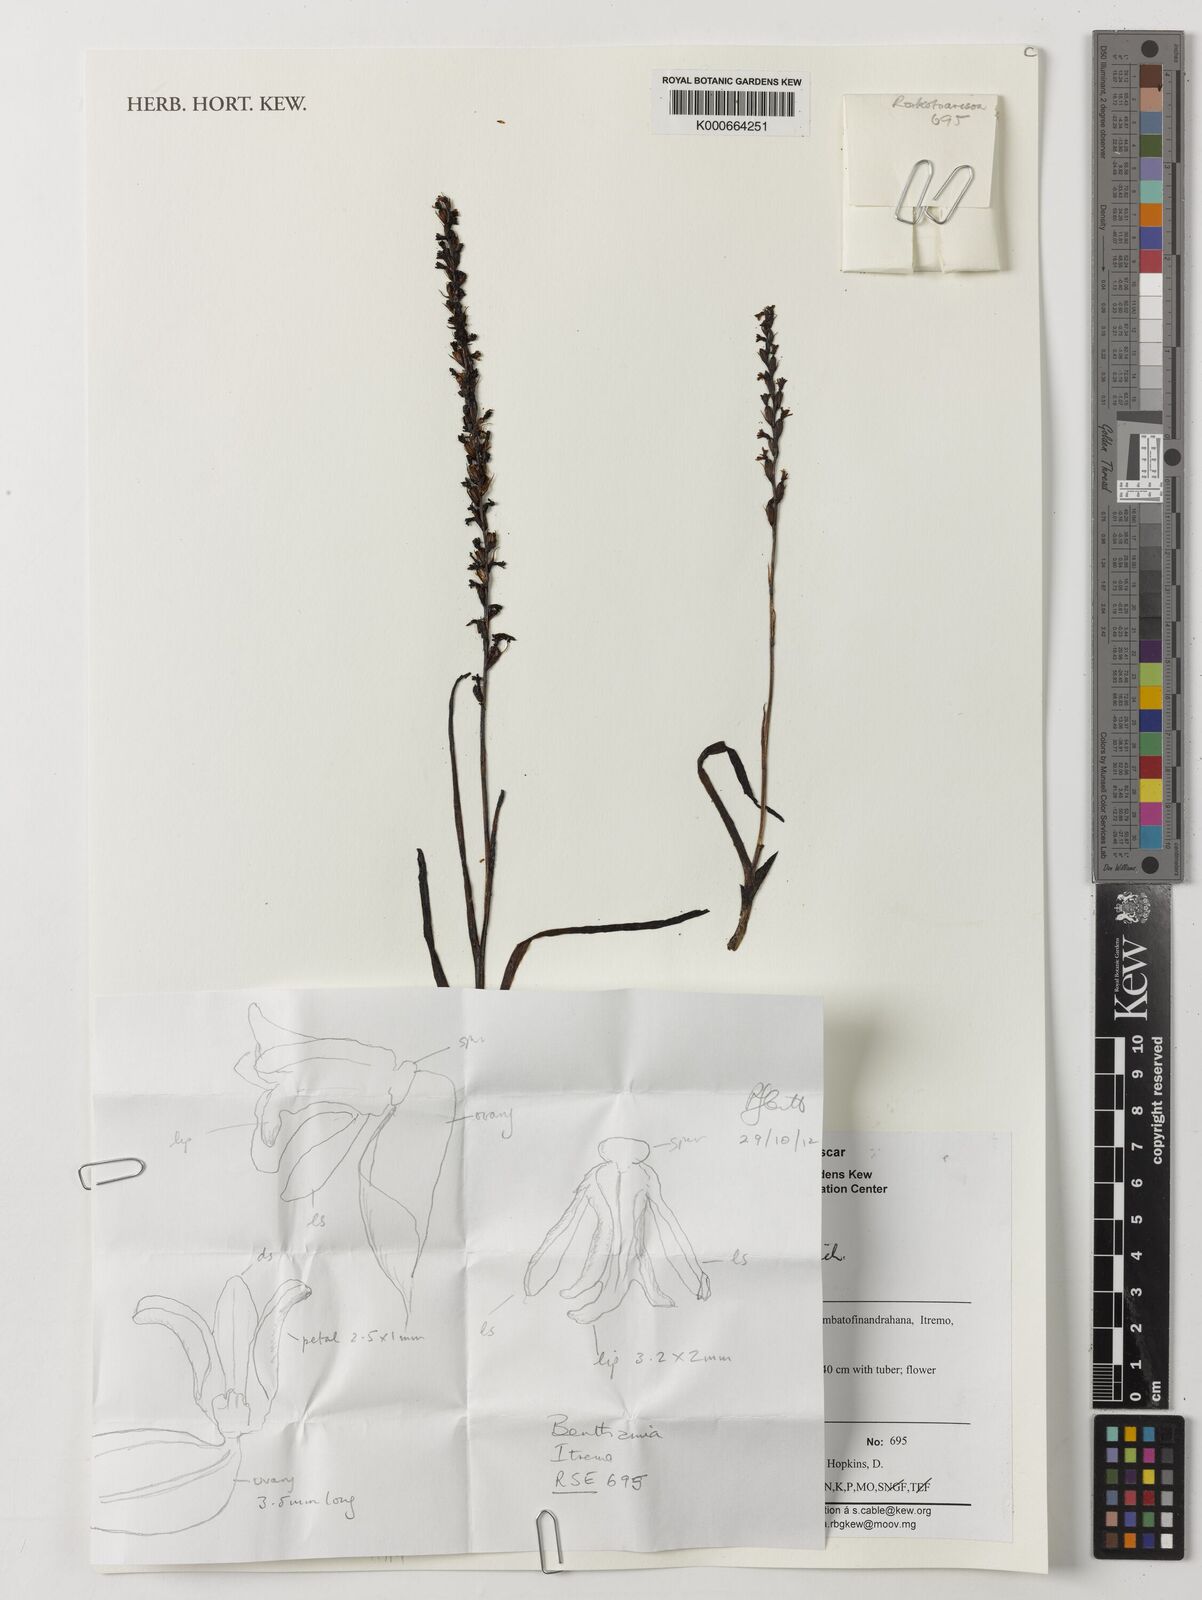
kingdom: Plantae
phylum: Tracheophyta
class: Liliopsida
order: Asparagales
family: Orchidaceae
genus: Benthamia
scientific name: Benthamia africana
